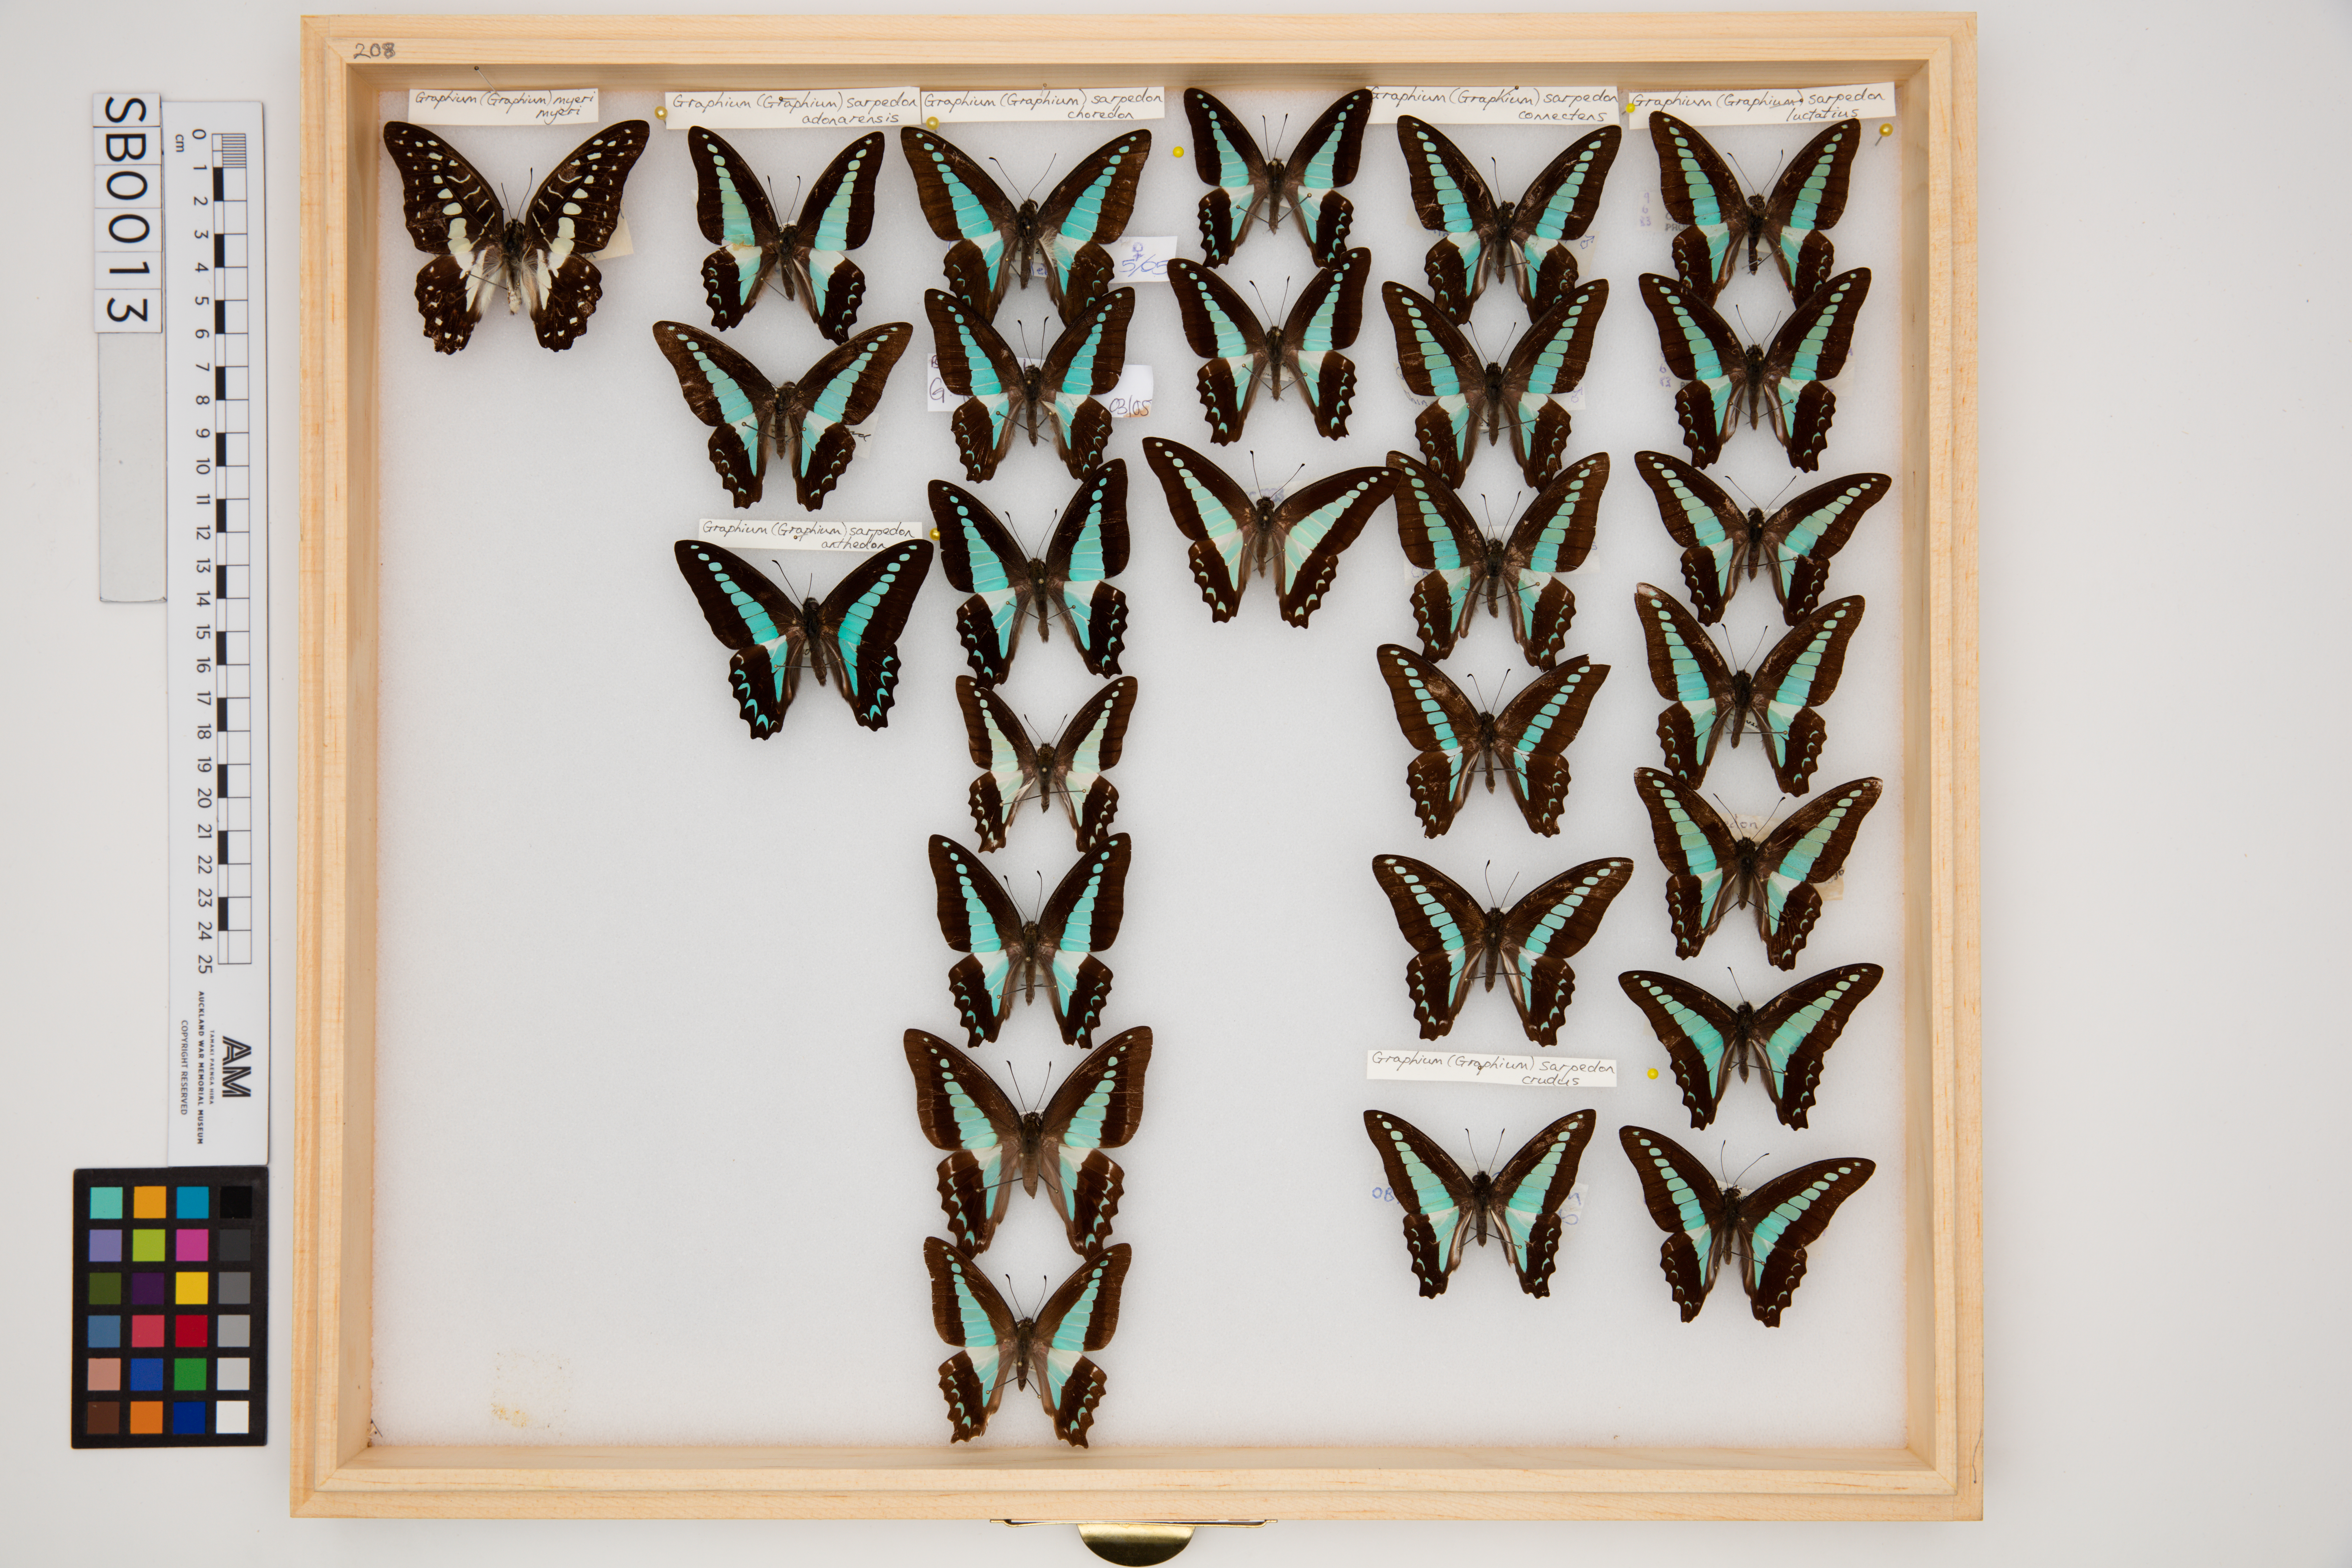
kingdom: Fungi
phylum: Ascomycota
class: Sordariomycetes
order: Microascales
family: Microascaceae
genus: Graphium
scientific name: Graphium sarpedon
